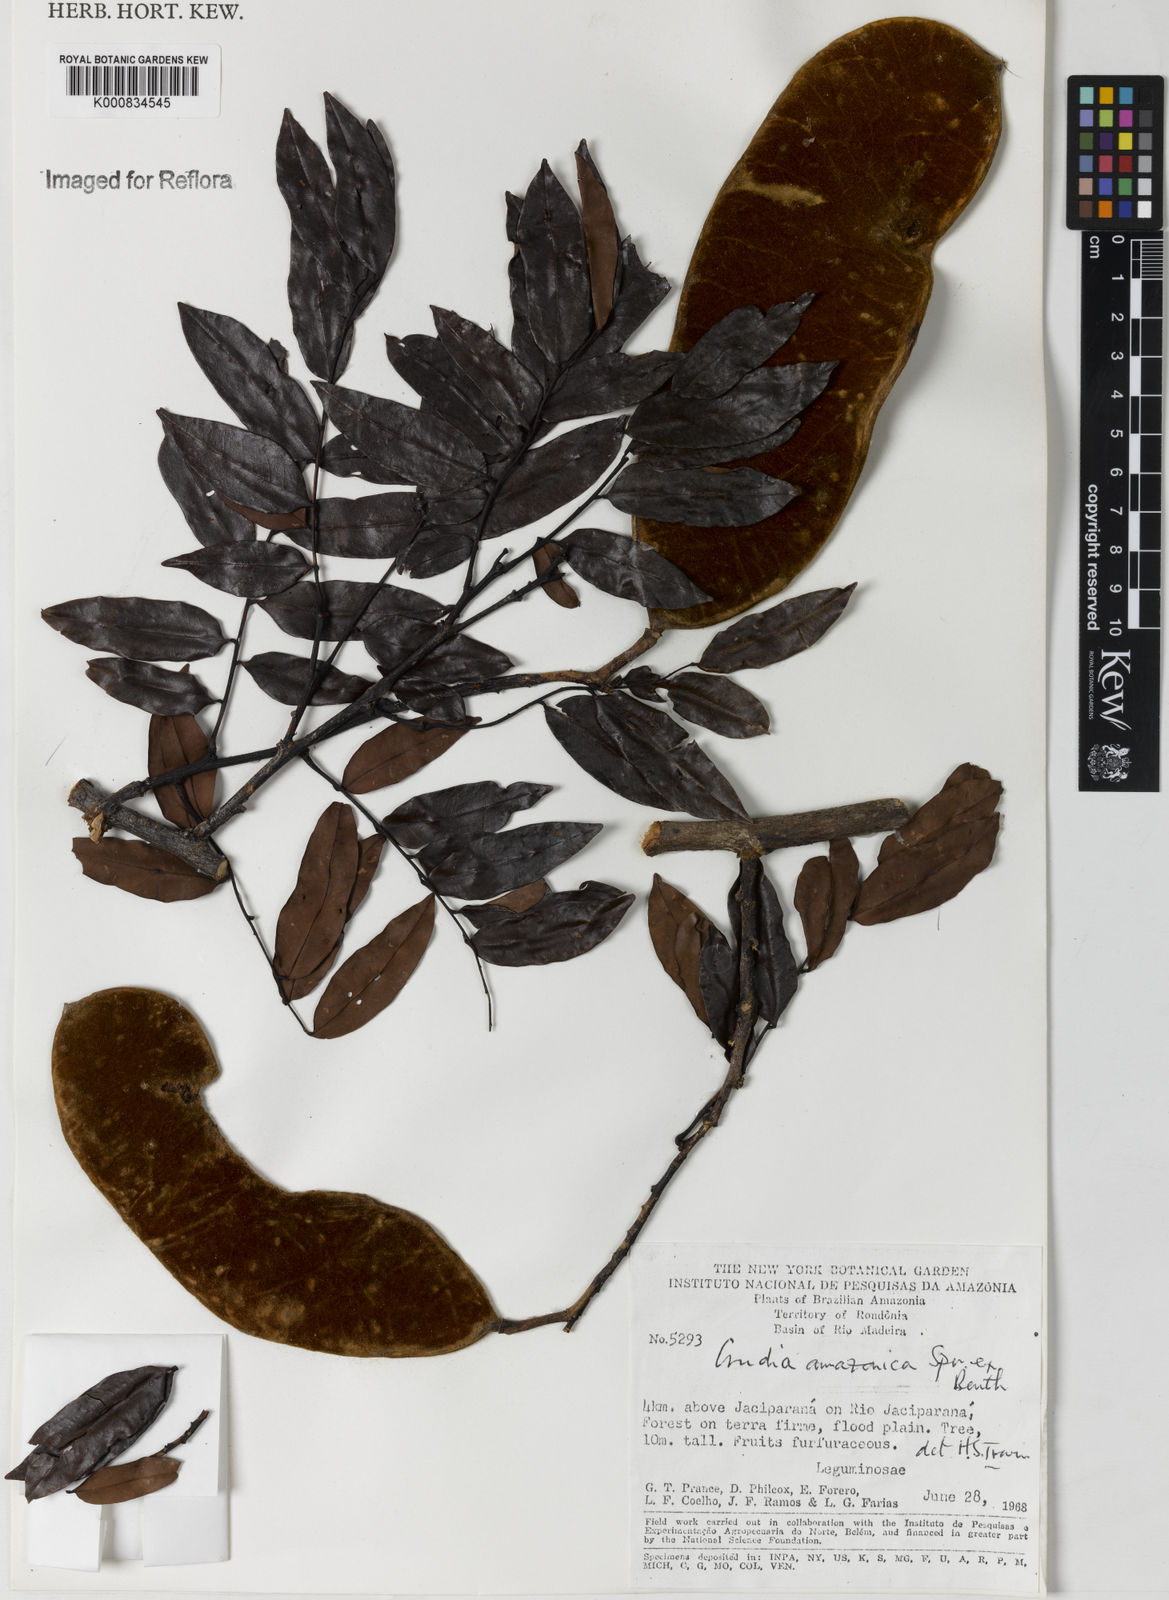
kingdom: Plantae
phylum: Tracheophyta
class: Magnoliopsida
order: Fabales
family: Fabaceae
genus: Crudia
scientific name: Crudia
